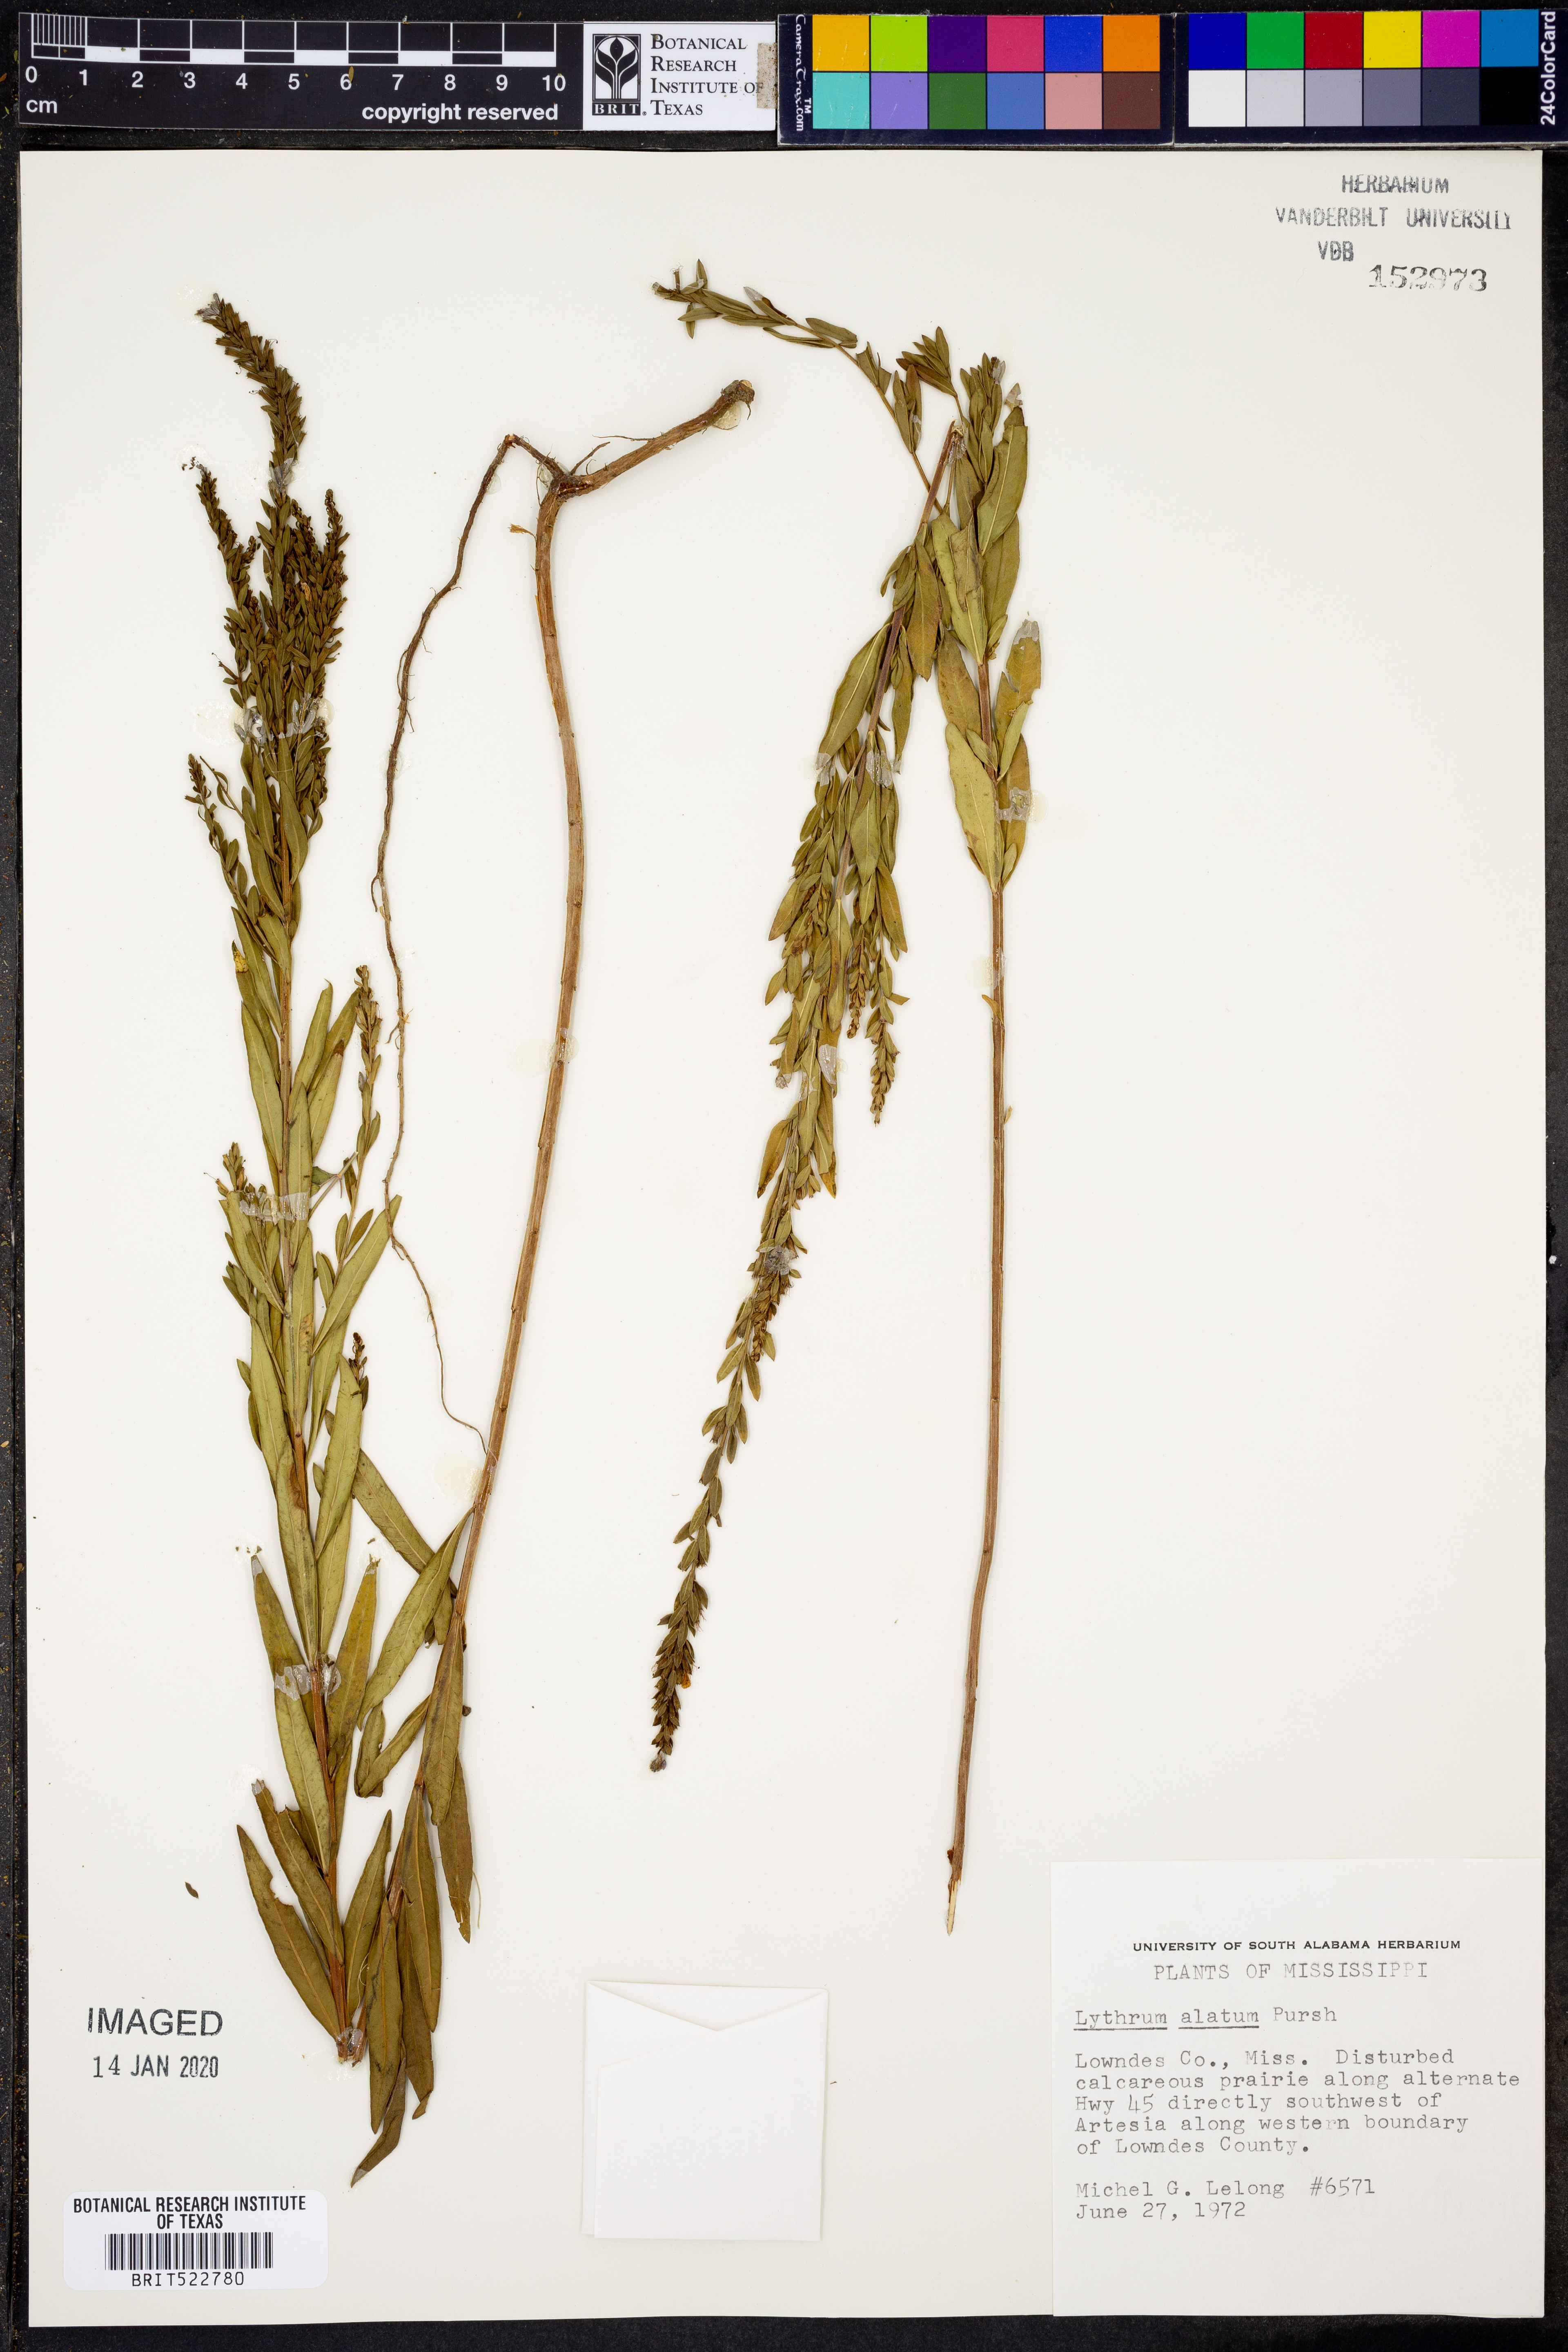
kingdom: Plantae
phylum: Tracheophyta
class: Magnoliopsida
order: Myrtales
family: Lythraceae
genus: Lythrum
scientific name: Lythrum alatum
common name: Winged loosestrife
